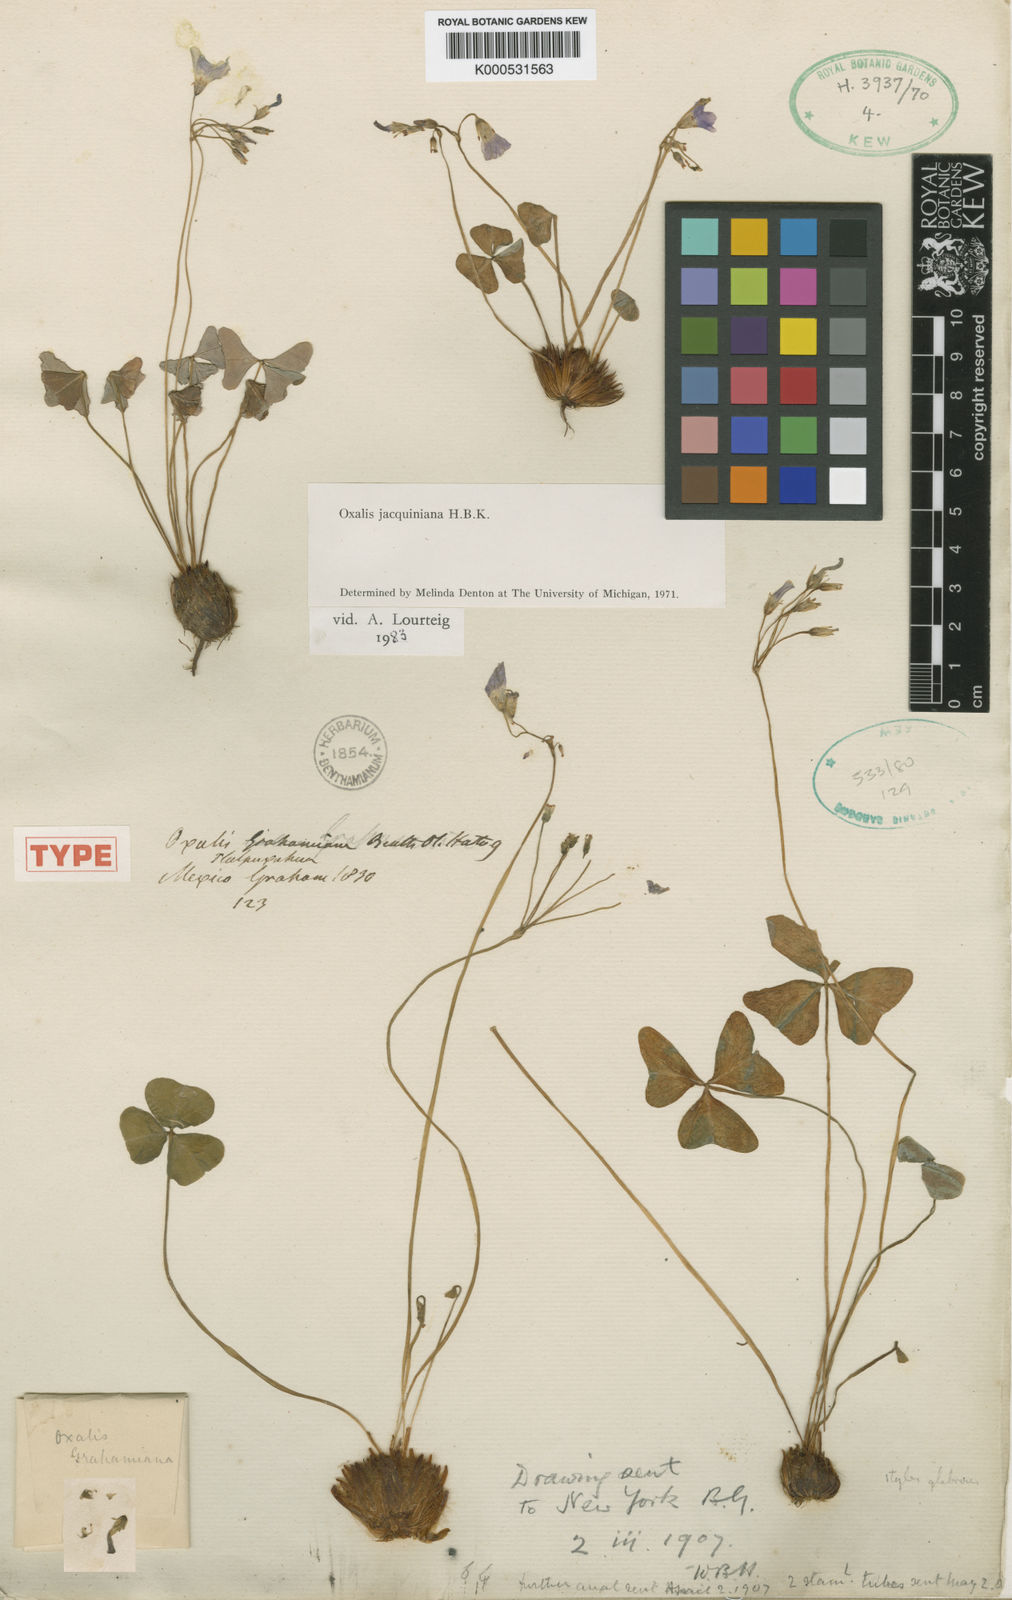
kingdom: Plantae
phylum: Tracheophyta
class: Magnoliopsida
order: Oxalidales
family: Oxalidaceae
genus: Oxalis
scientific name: Oxalis jacquiniana
